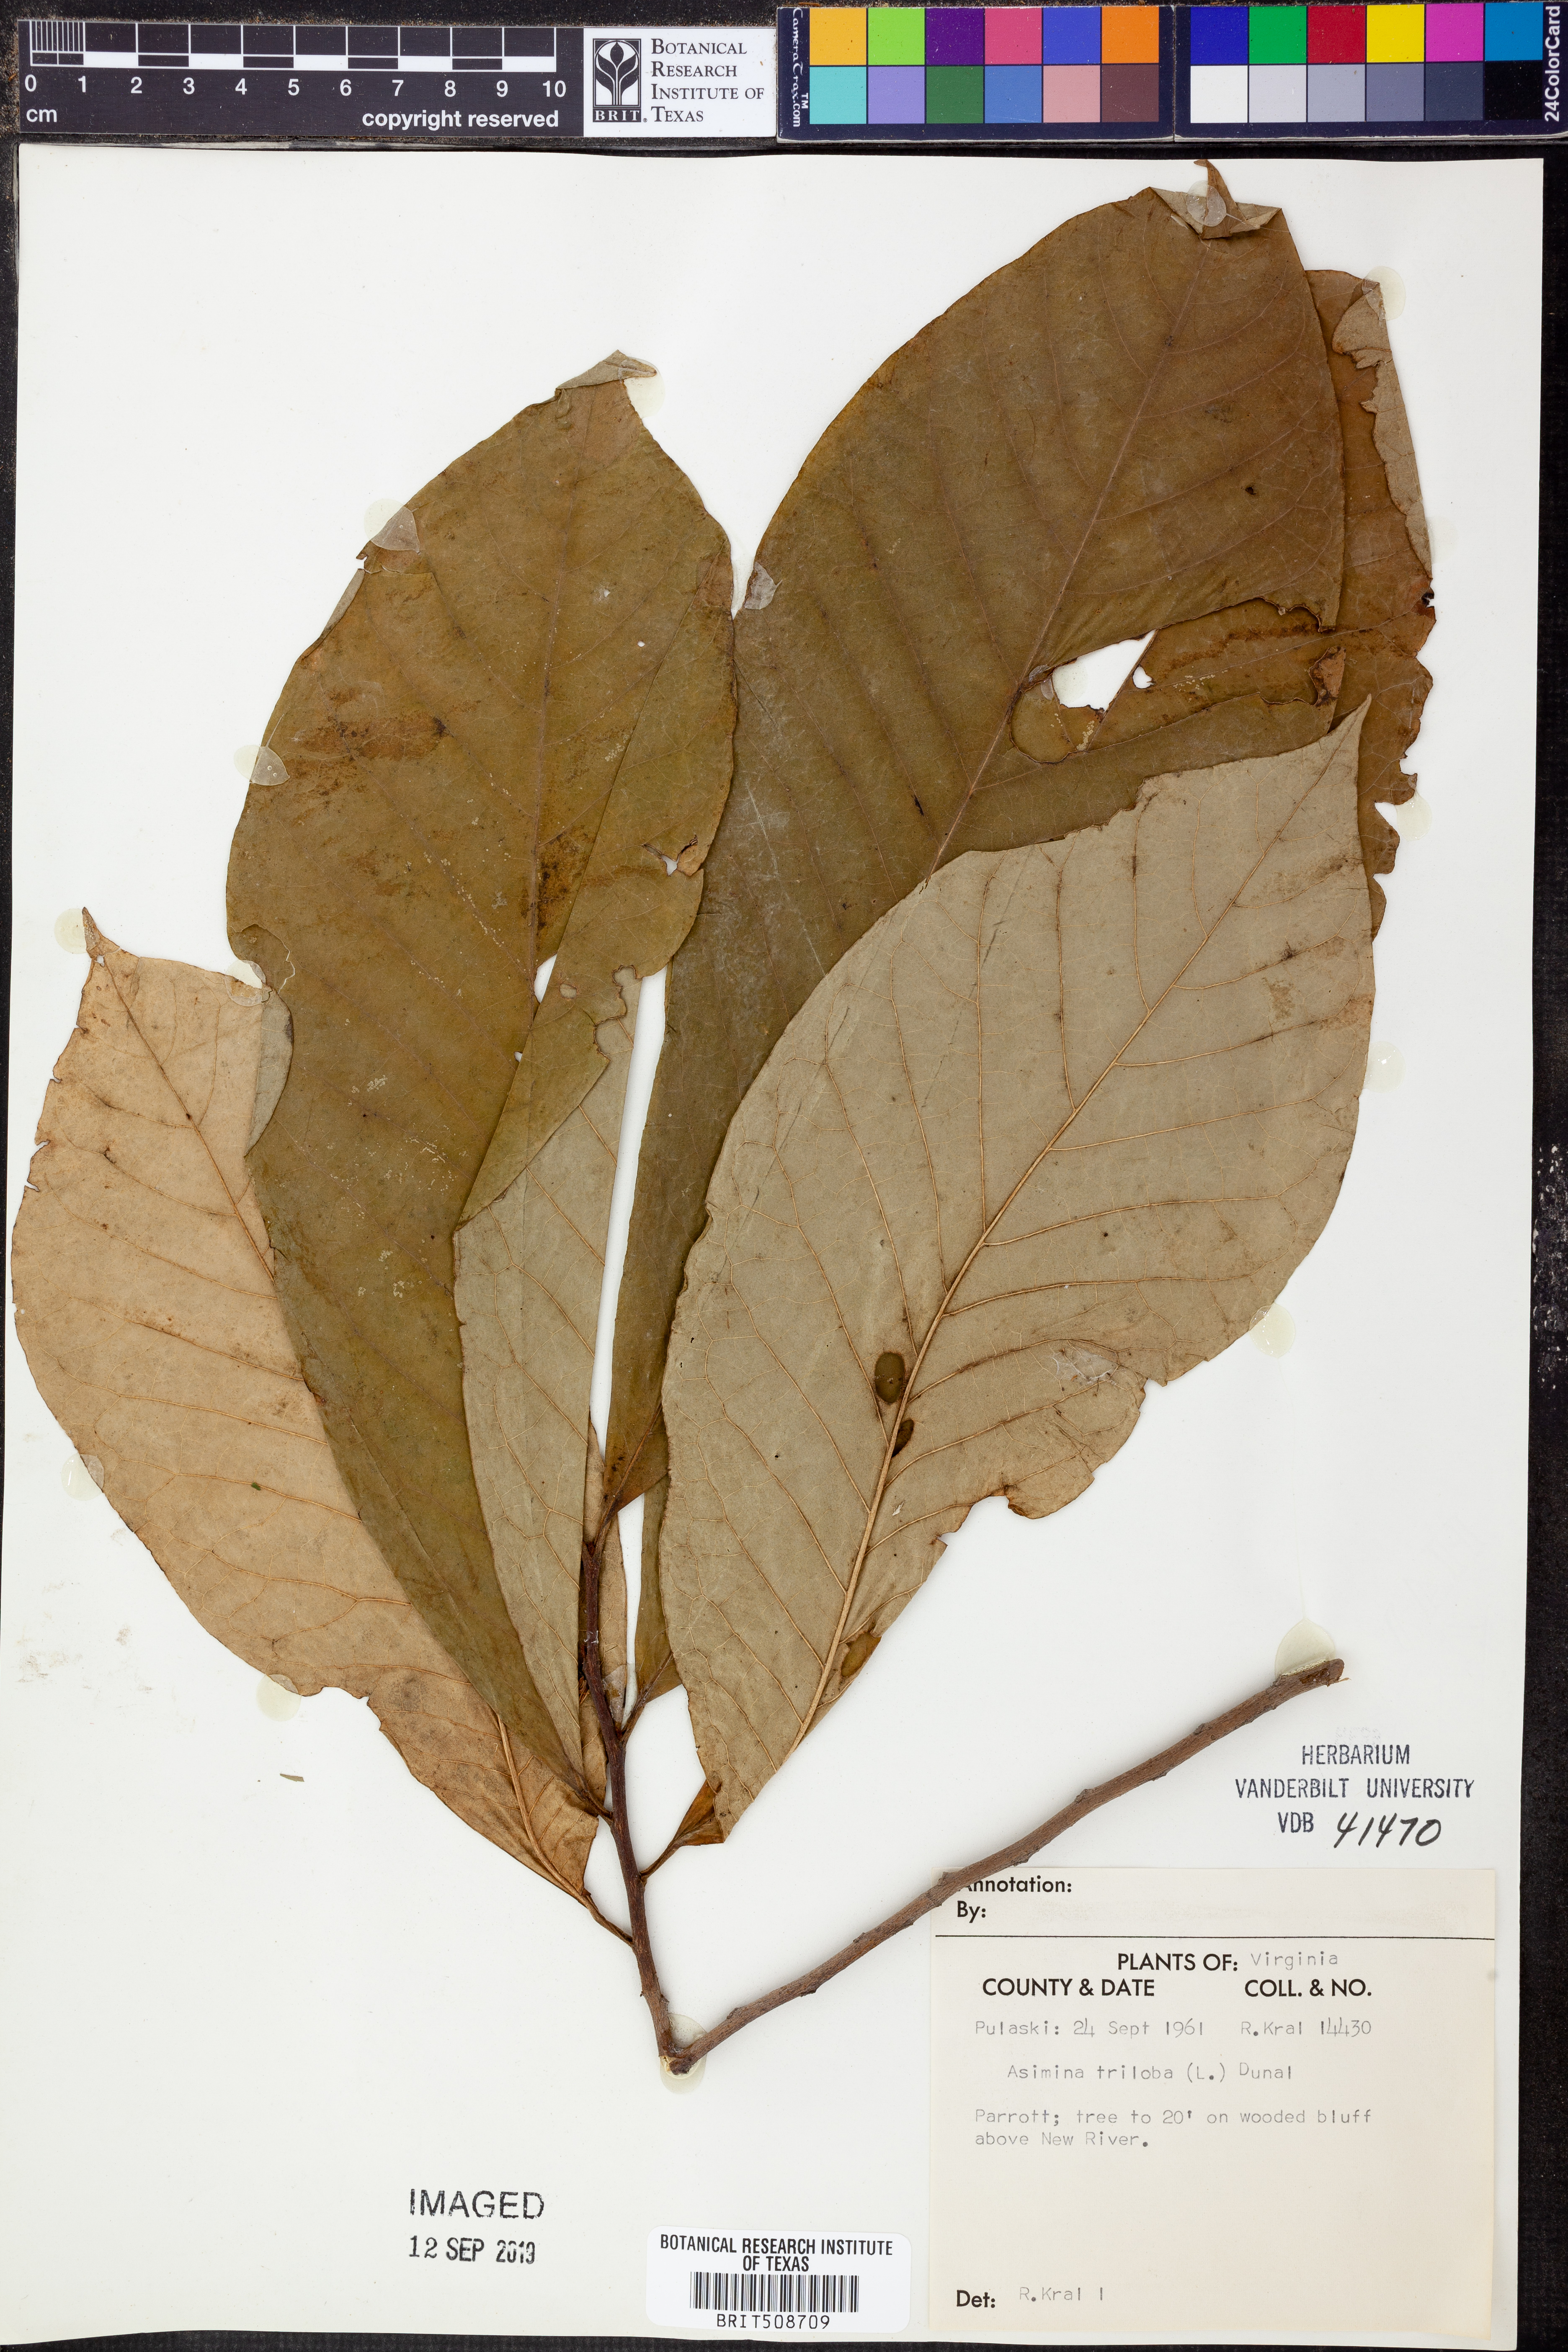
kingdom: Plantae
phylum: Tracheophyta
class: Magnoliopsida
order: Magnoliales
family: Annonaceae
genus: Asimina
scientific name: Asimina triloba
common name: Dog-banana
